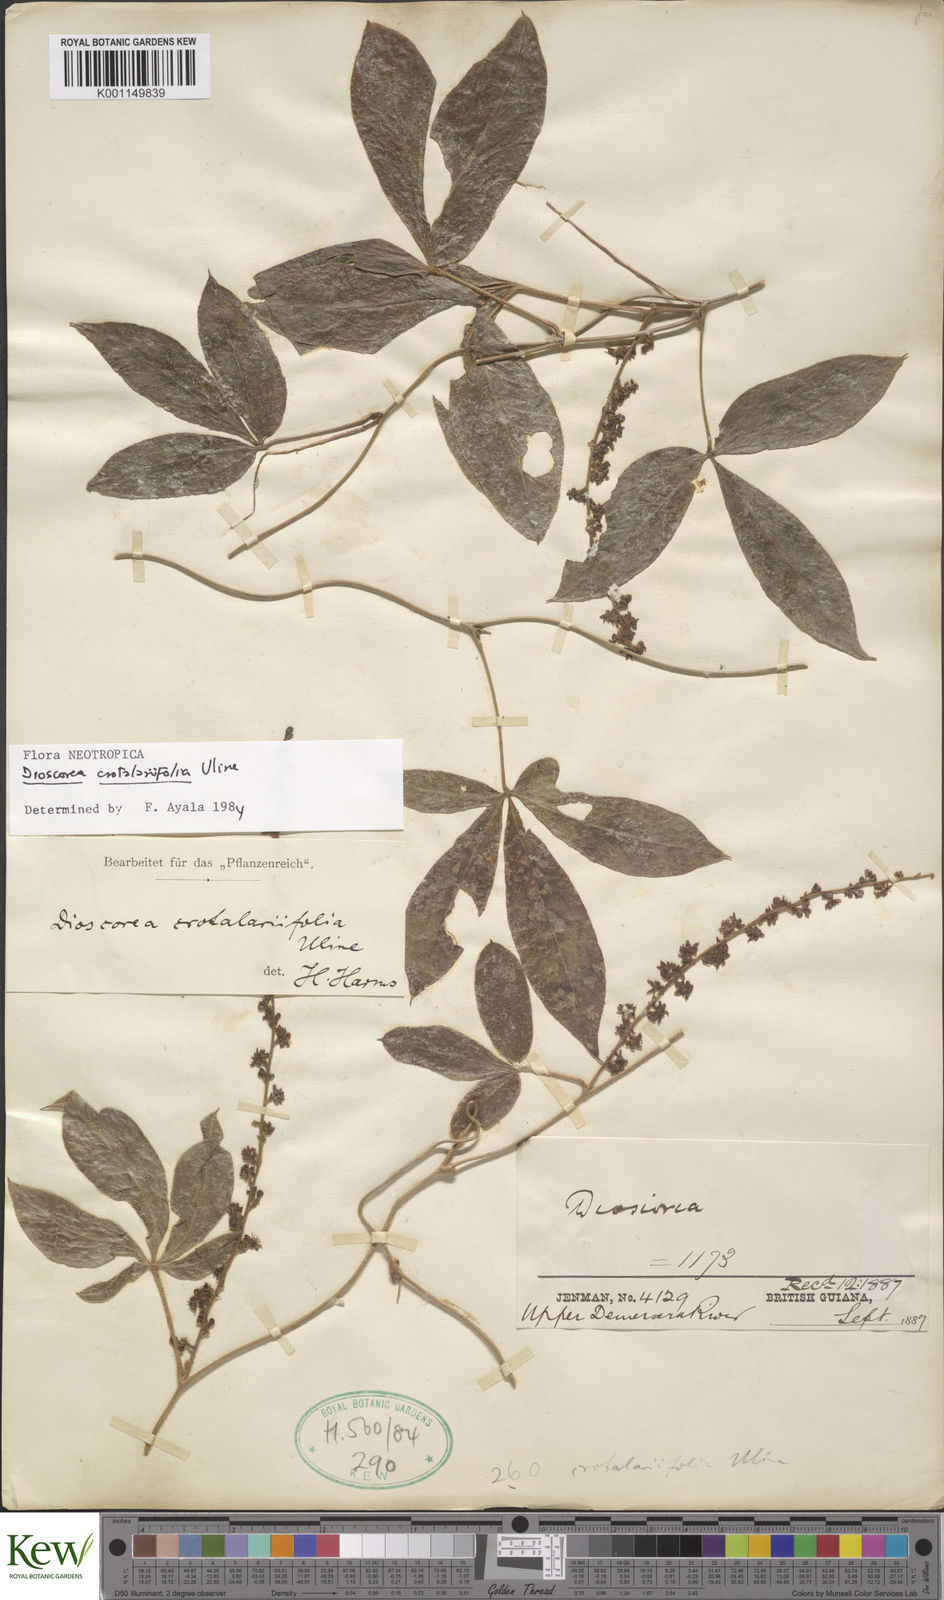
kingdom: Plantae
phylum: Tracheophyta
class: Liliopsida
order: Dioscoreales
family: Dioscoreaceae
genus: Dioscorea
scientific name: Dioscorea crotalariifolia
